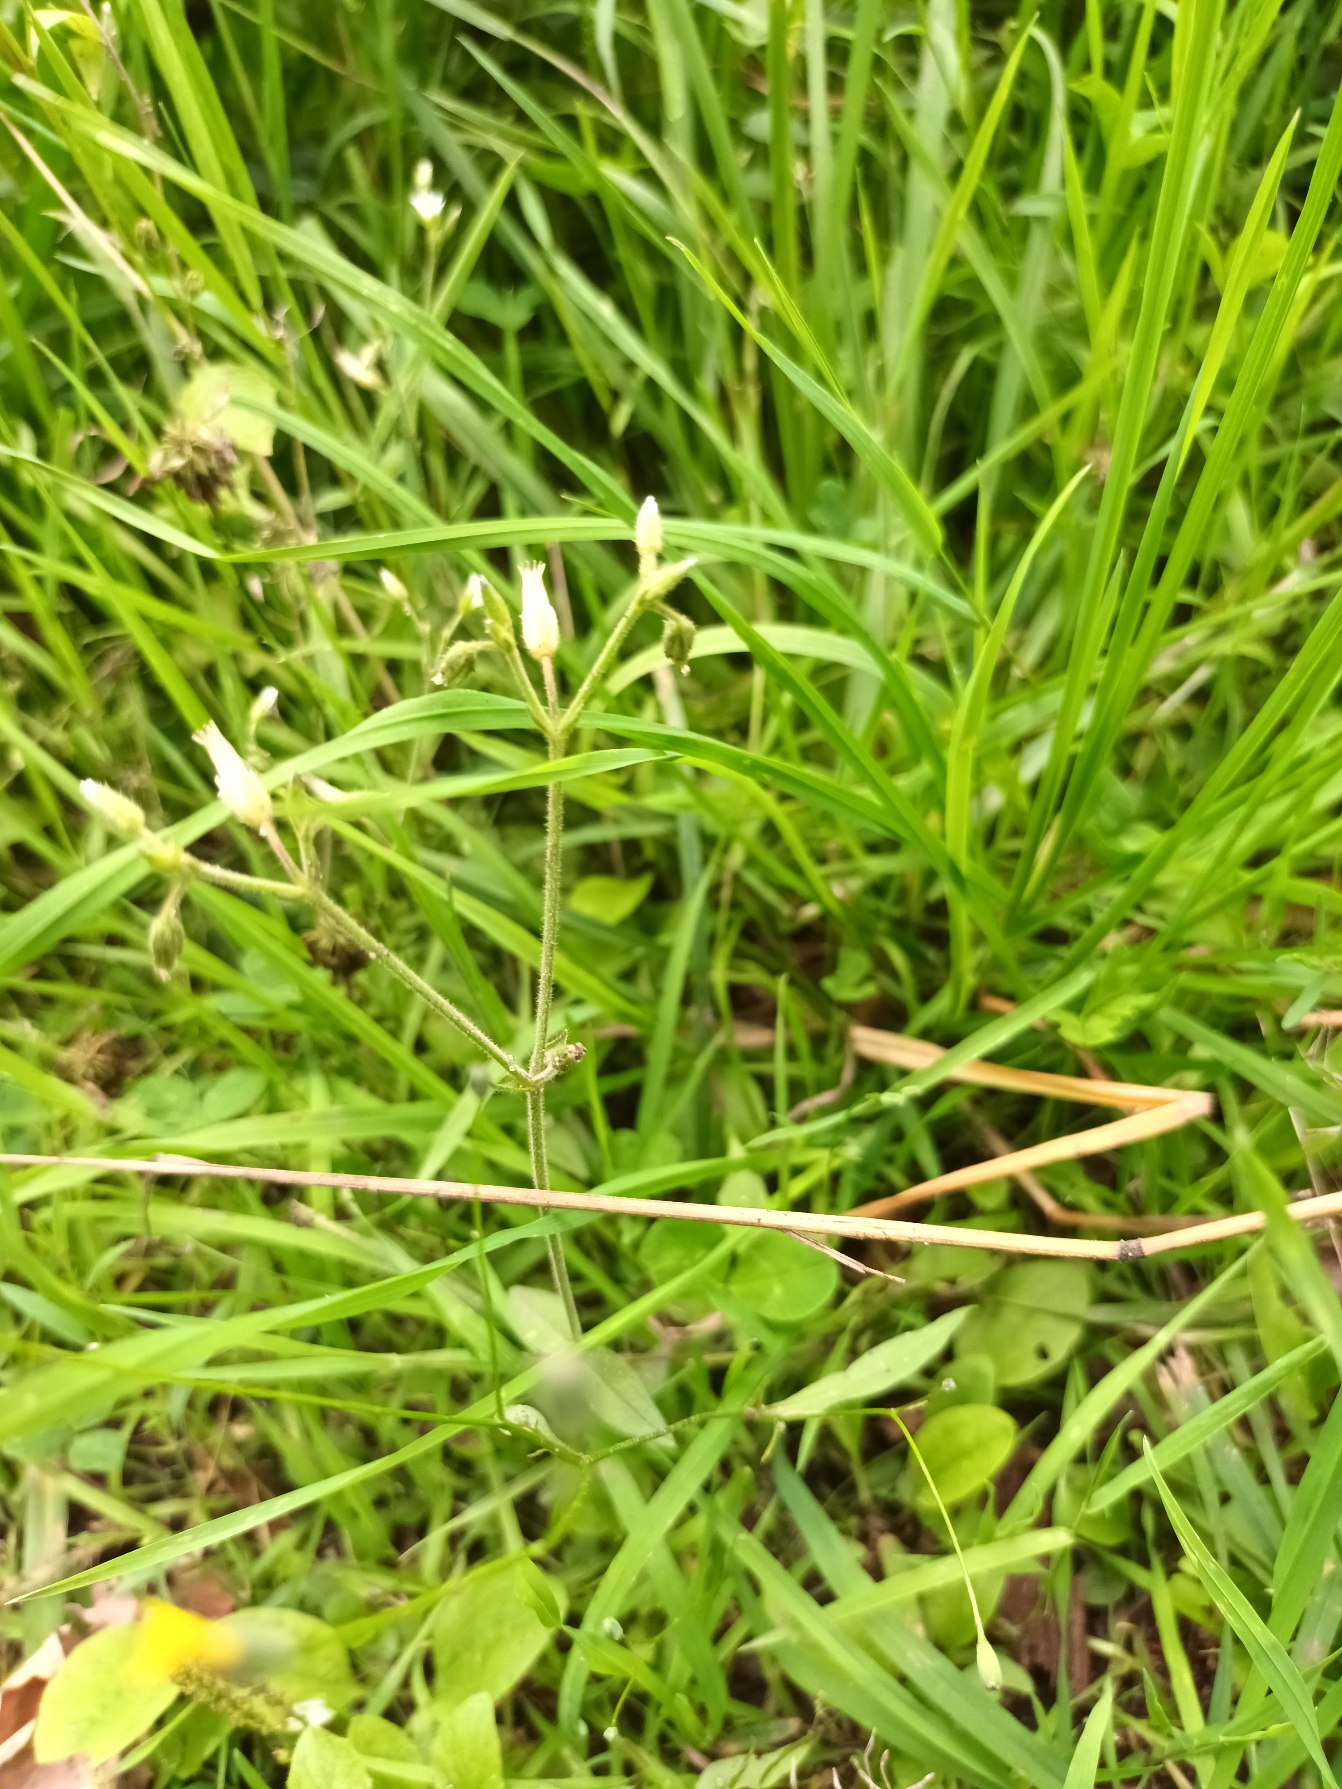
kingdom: Plantae
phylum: Tracheophyta
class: Magnoliopsida
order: Caryophyllales
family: Caryophyllaceae
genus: Cerastium
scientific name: Cerastium fontanum
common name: Almindelig hønsetarm
